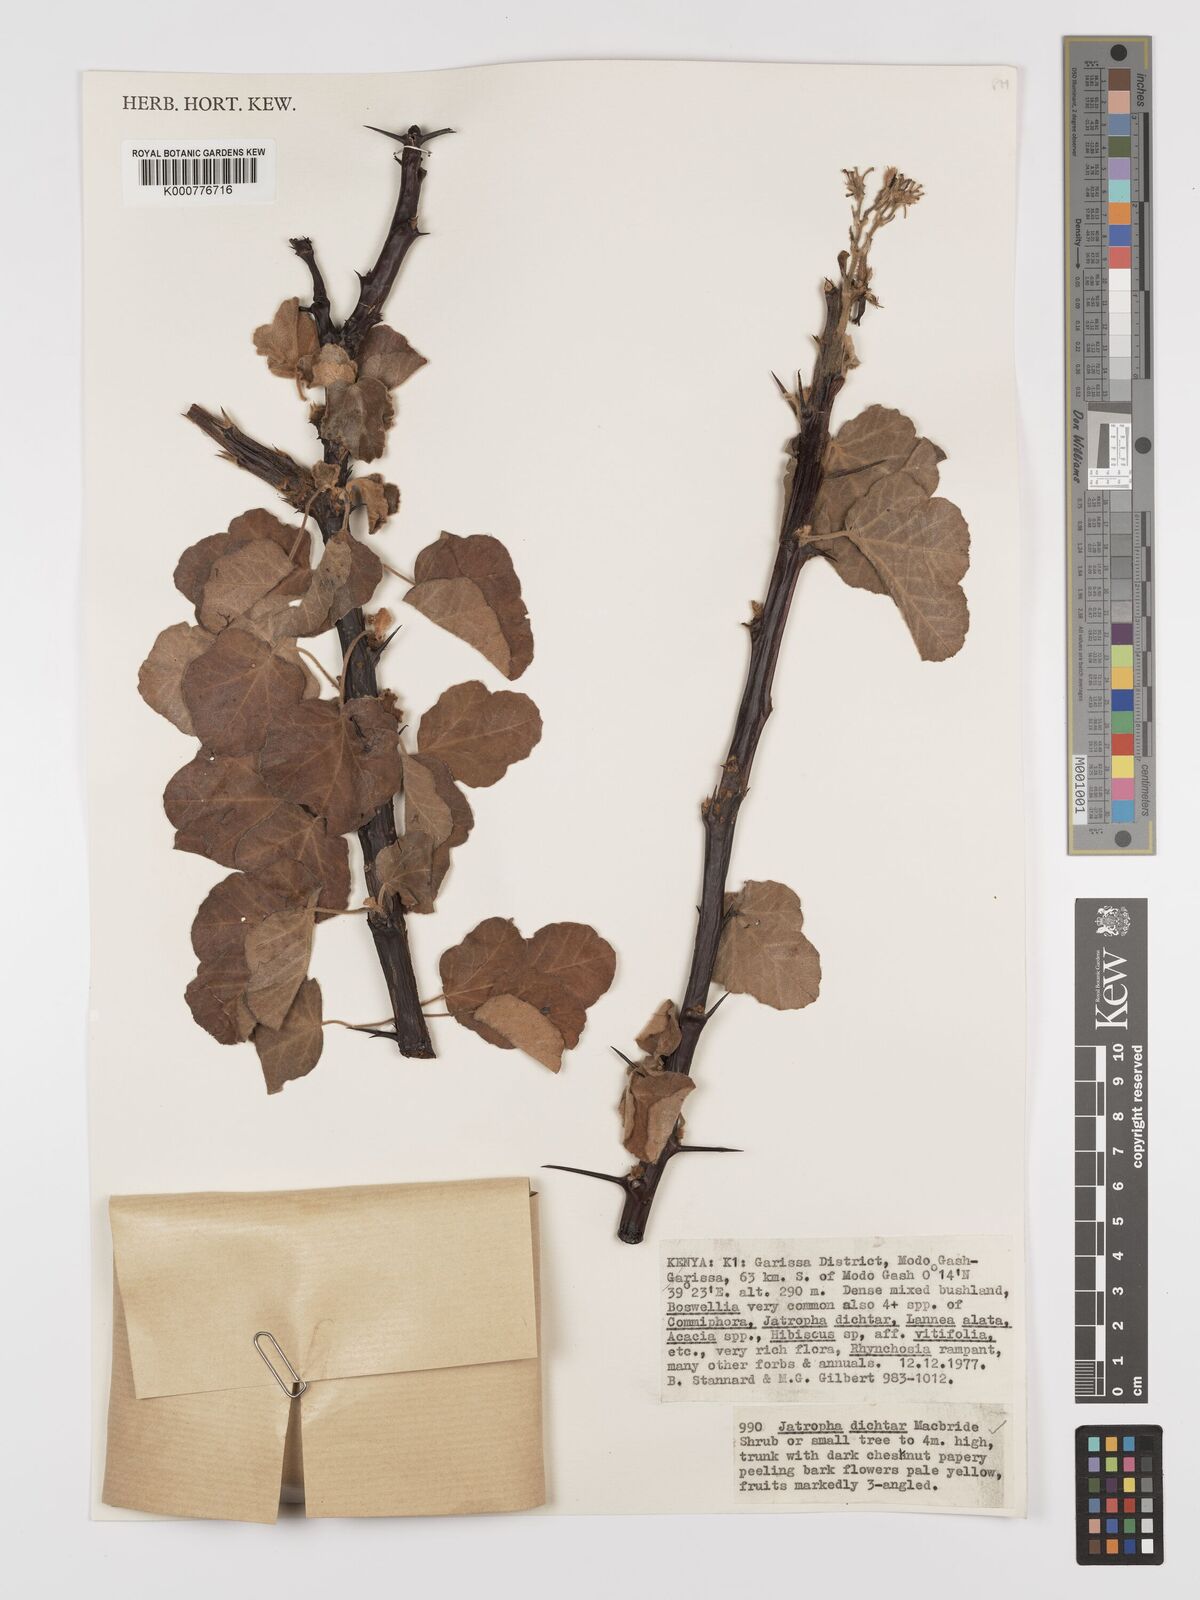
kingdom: Plantae
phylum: Tracheophyta
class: Magnoliopsida
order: Malpighiales
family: Euphorbiaceae
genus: Jatropha
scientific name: Jatropha dichtar
